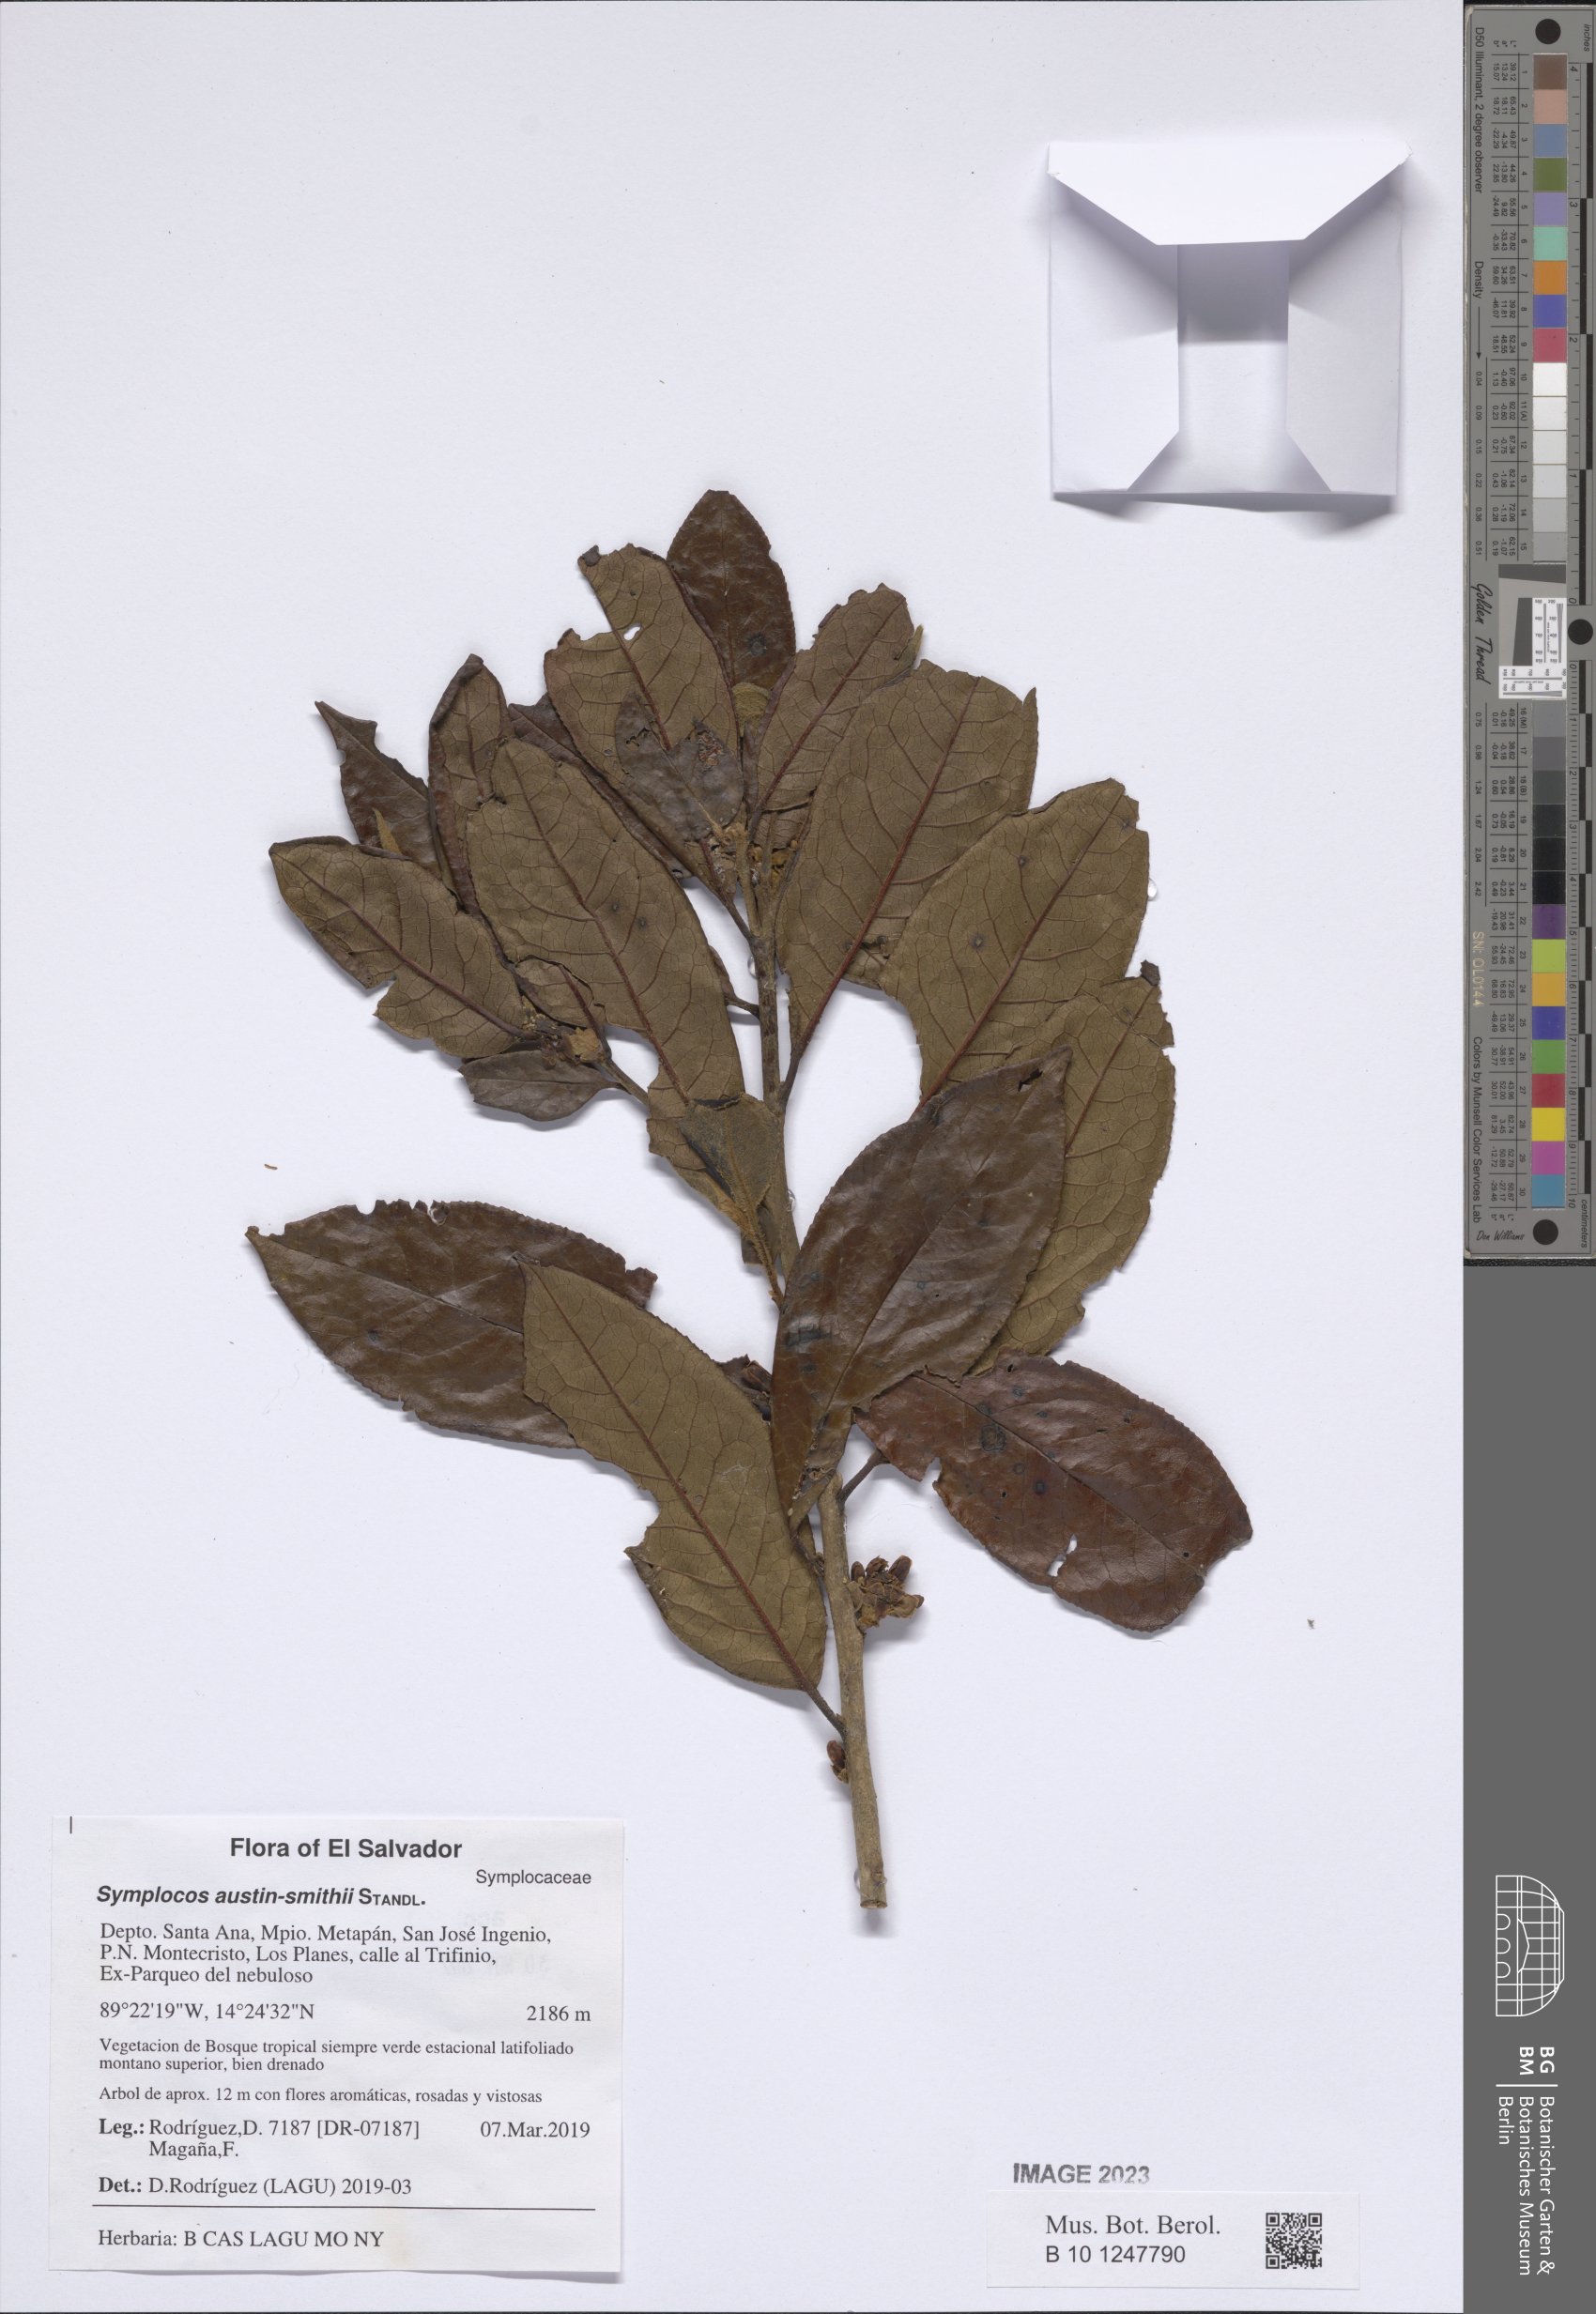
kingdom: Plantae
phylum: Tracheophyta
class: Magnoliopsida
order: Ericales
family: Symplocaceae
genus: Symplocos
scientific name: Symplocos austin-smithii
